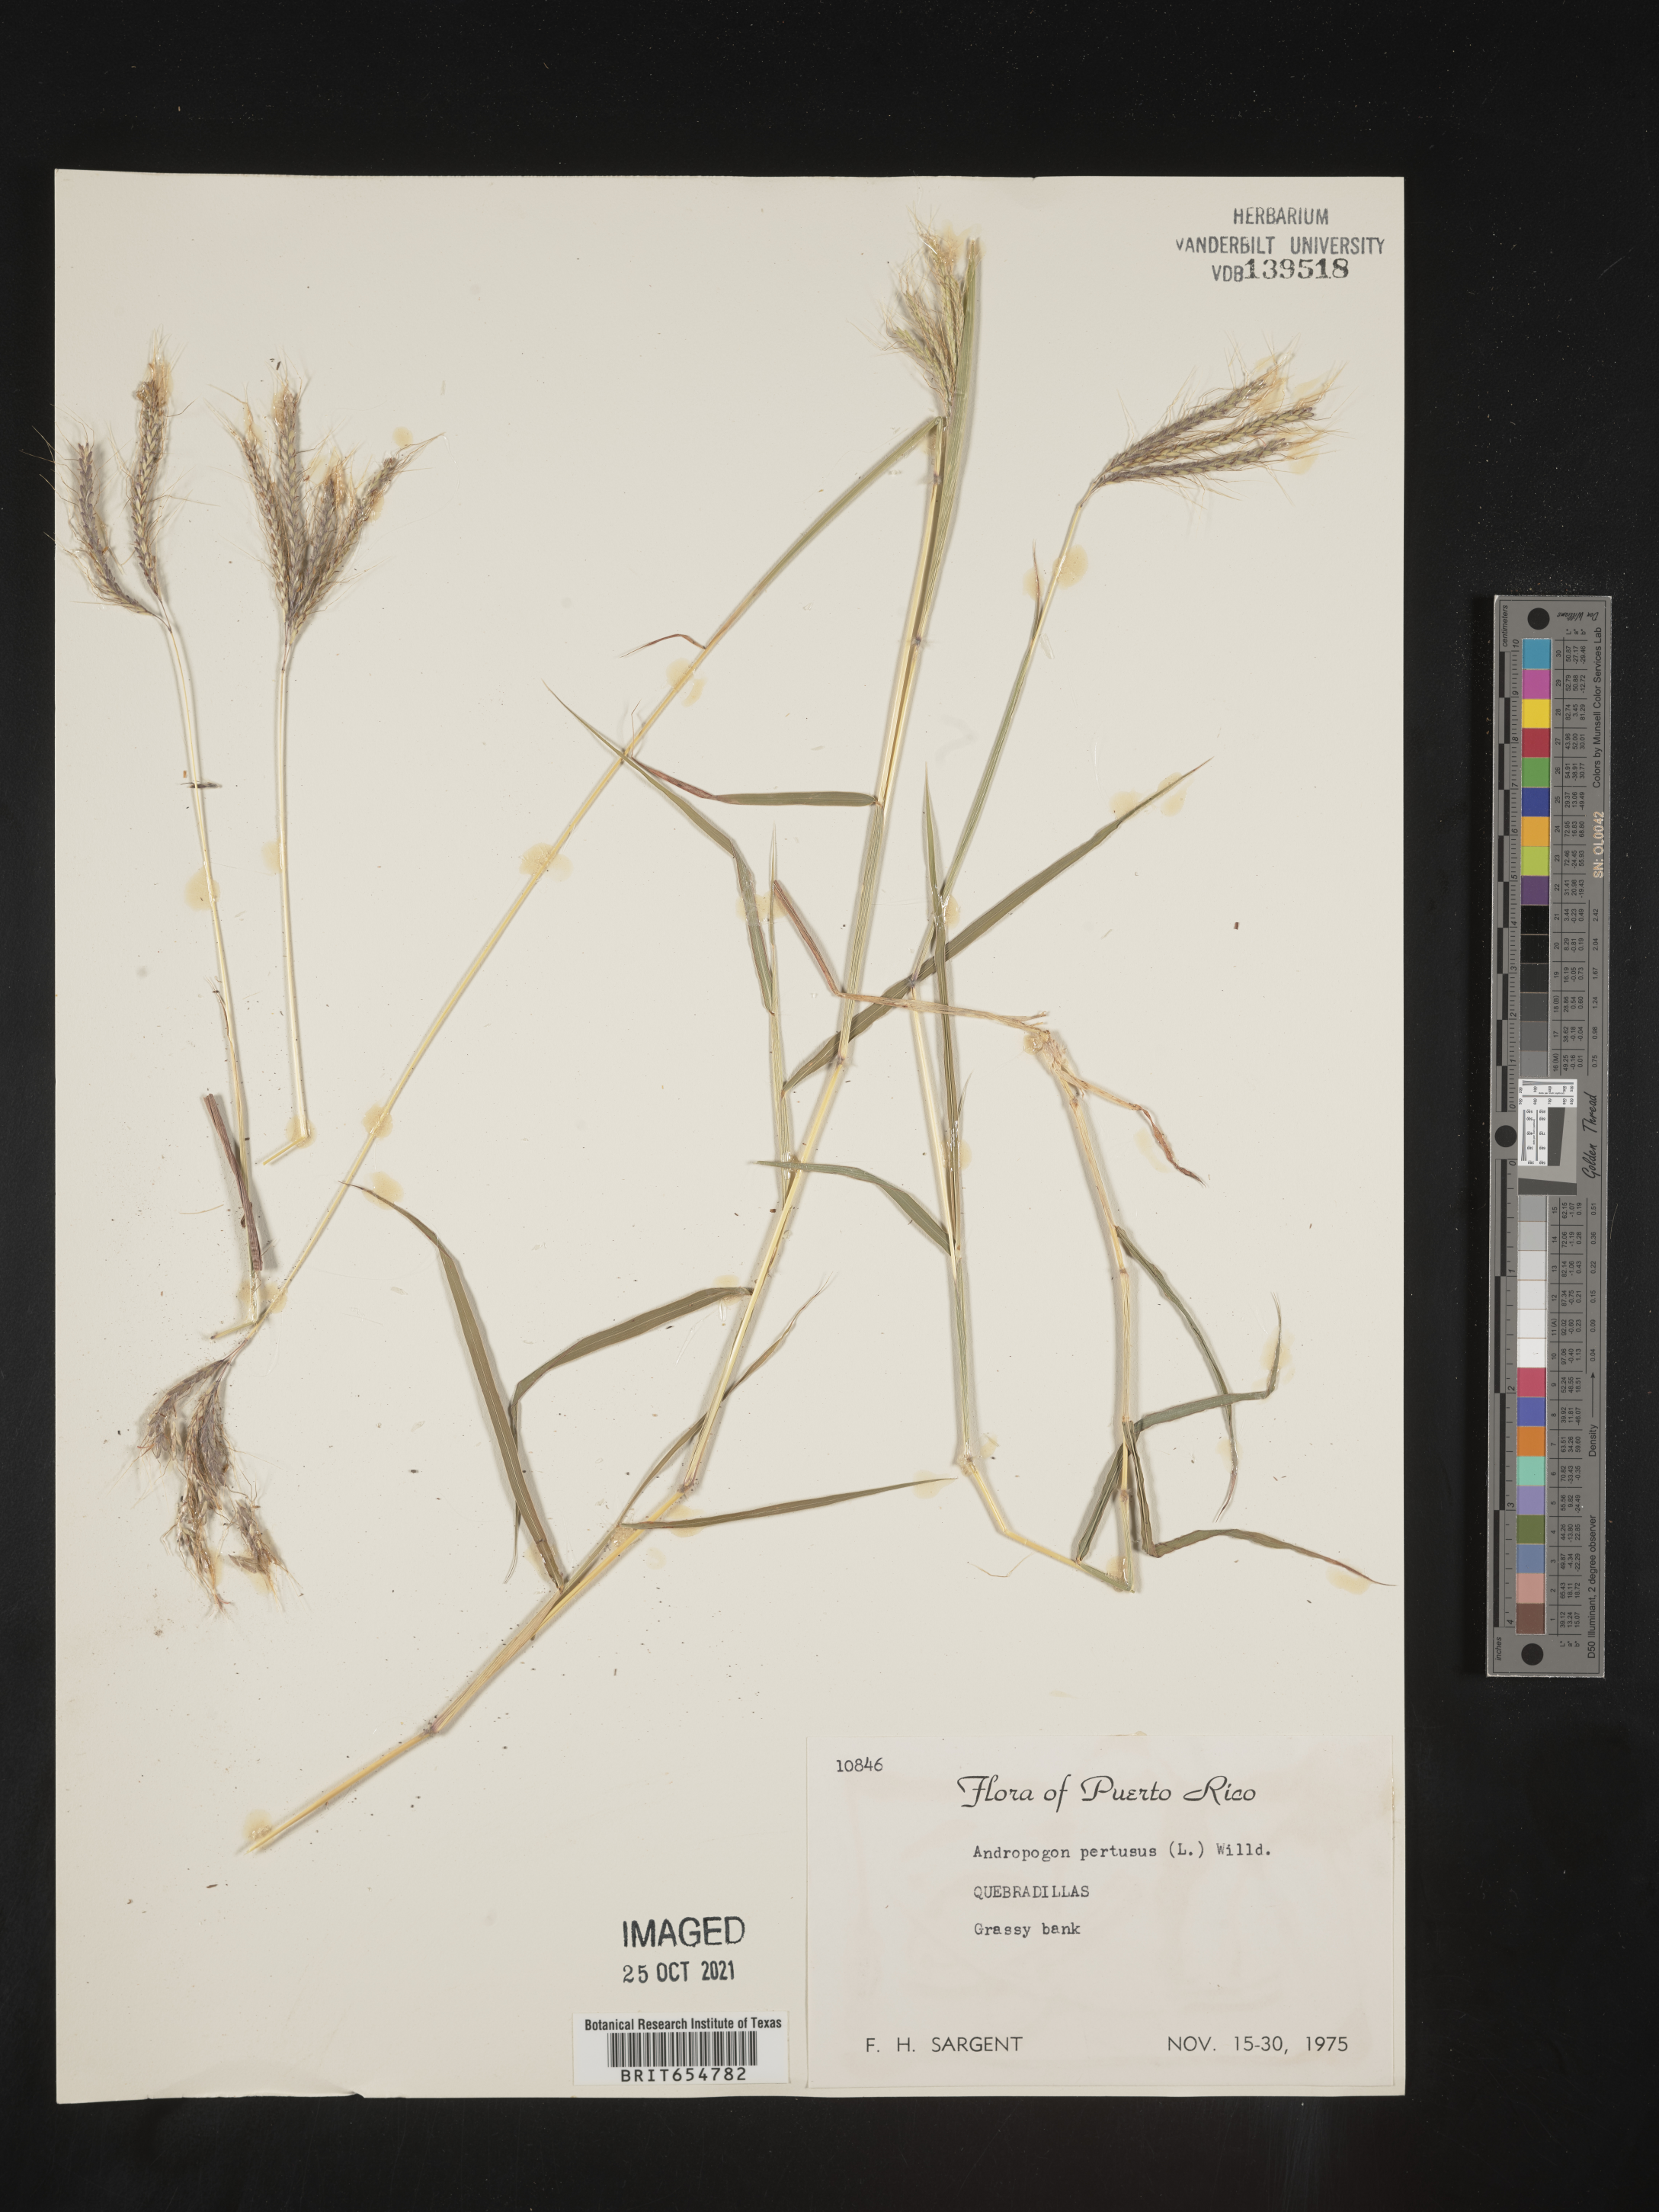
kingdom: Plantae
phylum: Tracheophyta
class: Liliopsida
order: Poales
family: Poaceae
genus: Andropogon
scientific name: Andropogon
